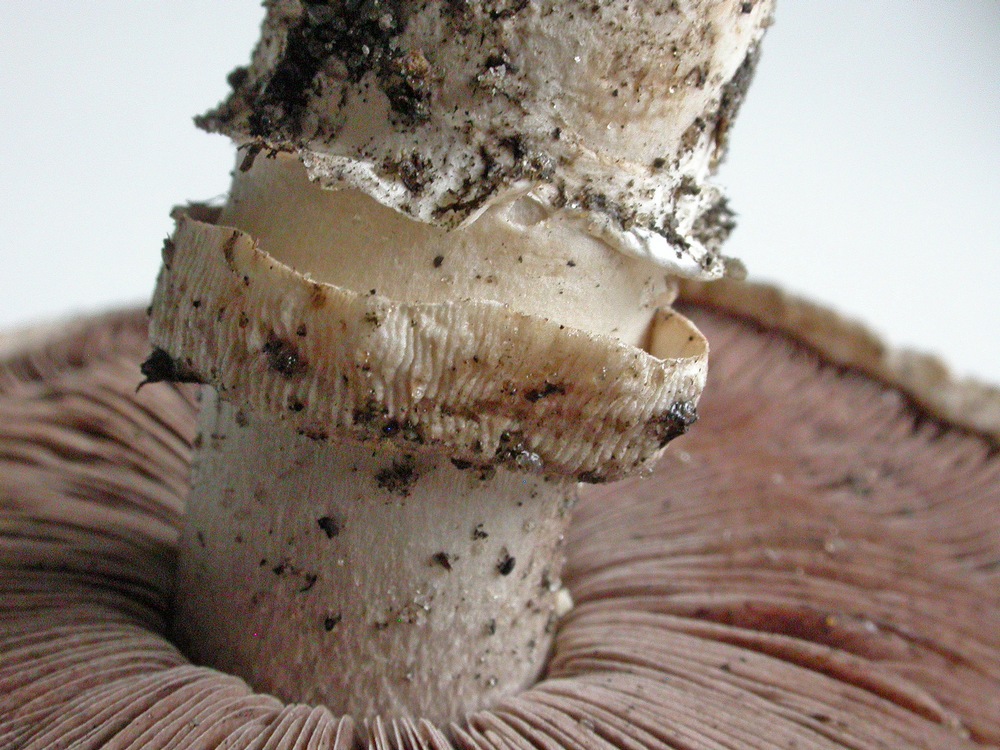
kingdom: Fungi
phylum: Basidiomycota
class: Agaricomycetes
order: Agaricales
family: Agaricaceae
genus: Agaricus
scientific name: Agaricus bitorquis
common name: vej-champignon
